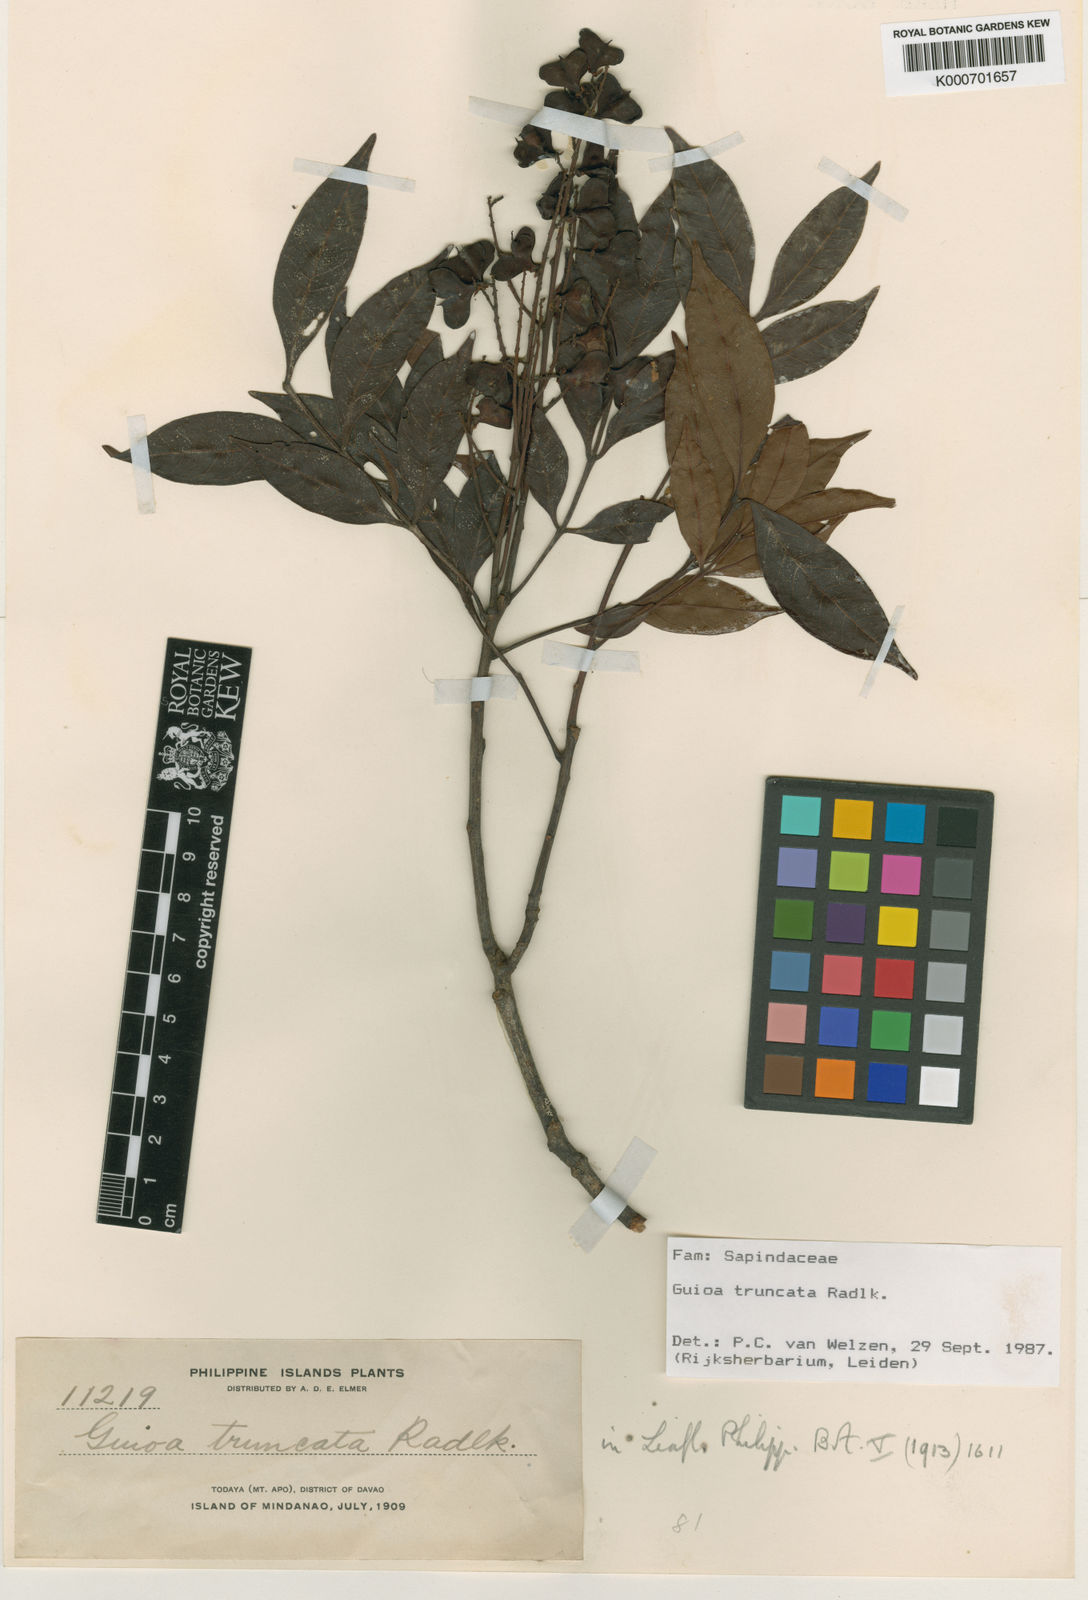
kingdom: Plantae
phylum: Tracheophyta
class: Magnoliopsida
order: Sapindales
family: Sapindaceae
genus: Guioa
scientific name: Guioa truncata
